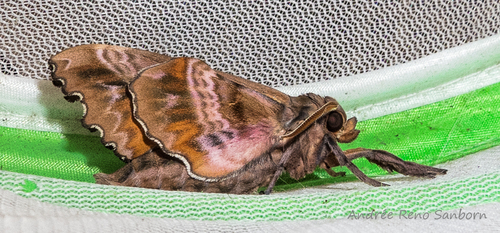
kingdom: Animalia
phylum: Arthropoda
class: Insecta
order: Lepidoptera
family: Sphingidae
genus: Paonias
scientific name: Paonias excaecata
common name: Blind-eyed sphinx
